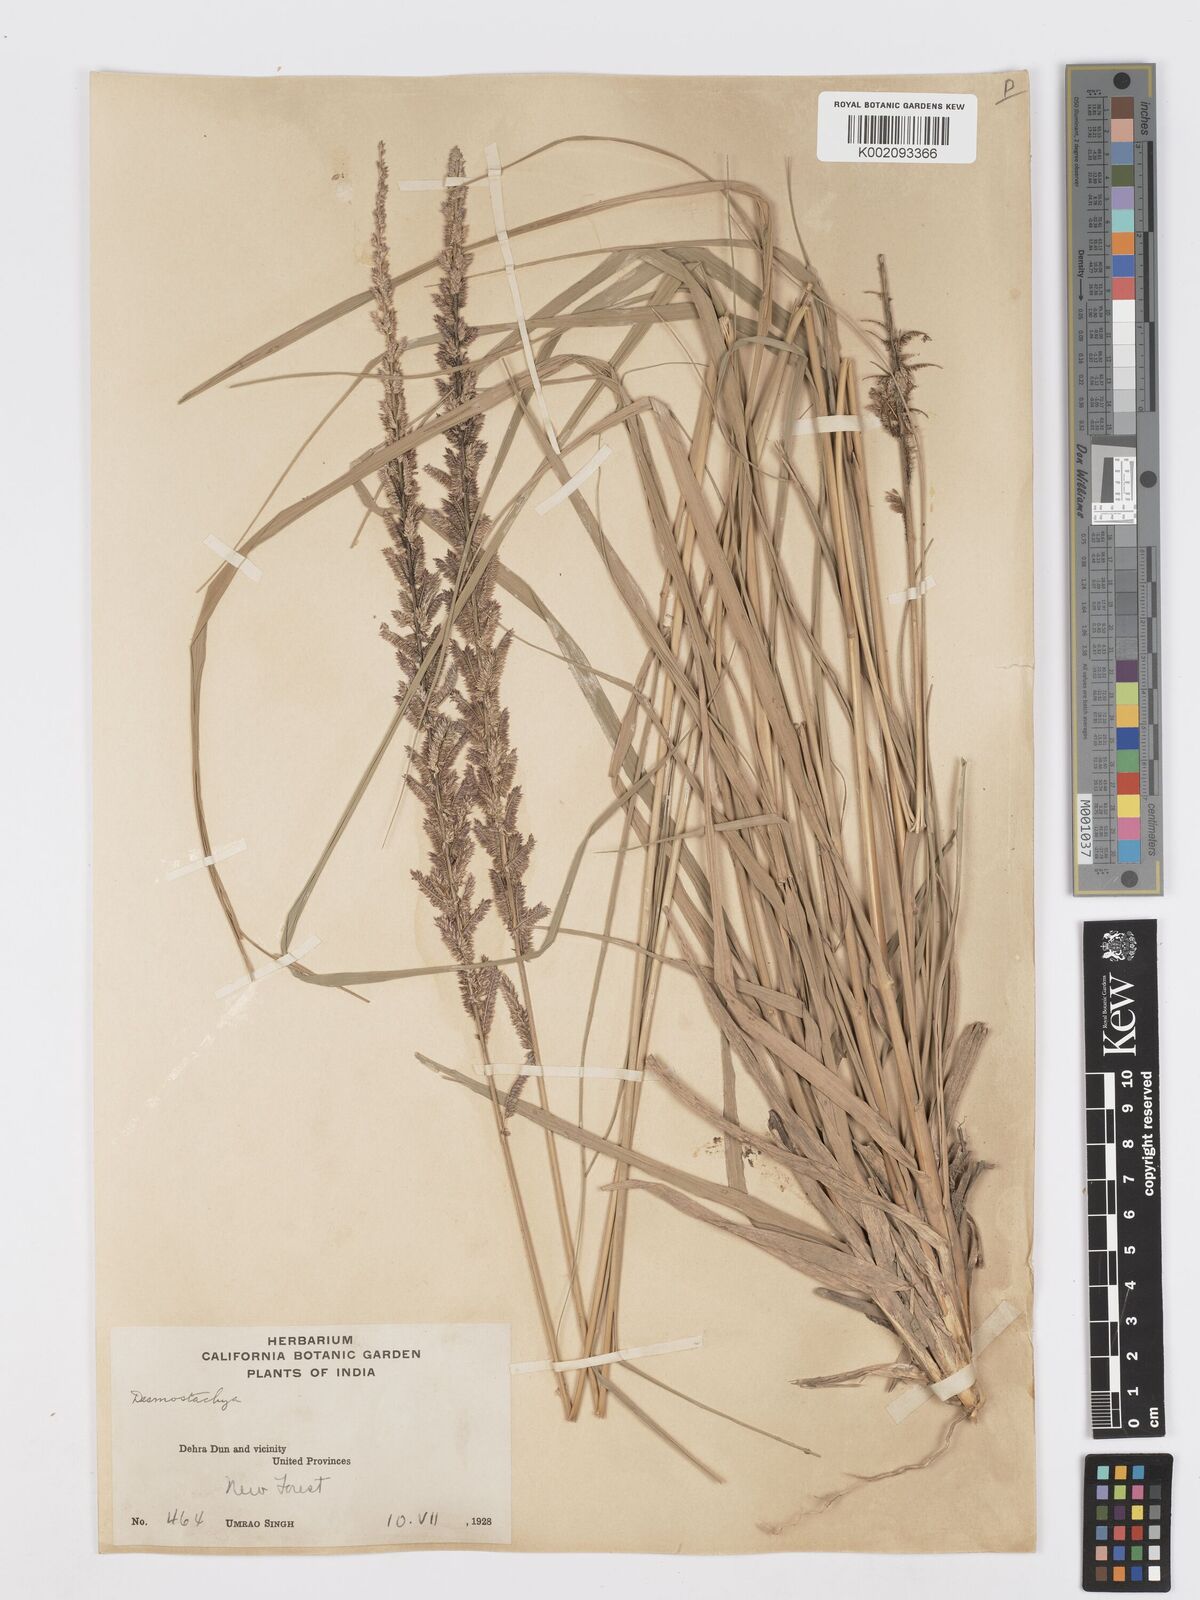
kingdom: Plantae
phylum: Tracheophyta
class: Liliopsida
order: Poales
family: Poaceae
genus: Desmostachya
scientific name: Desmostachya bipinnata
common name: Crowfoot grass
